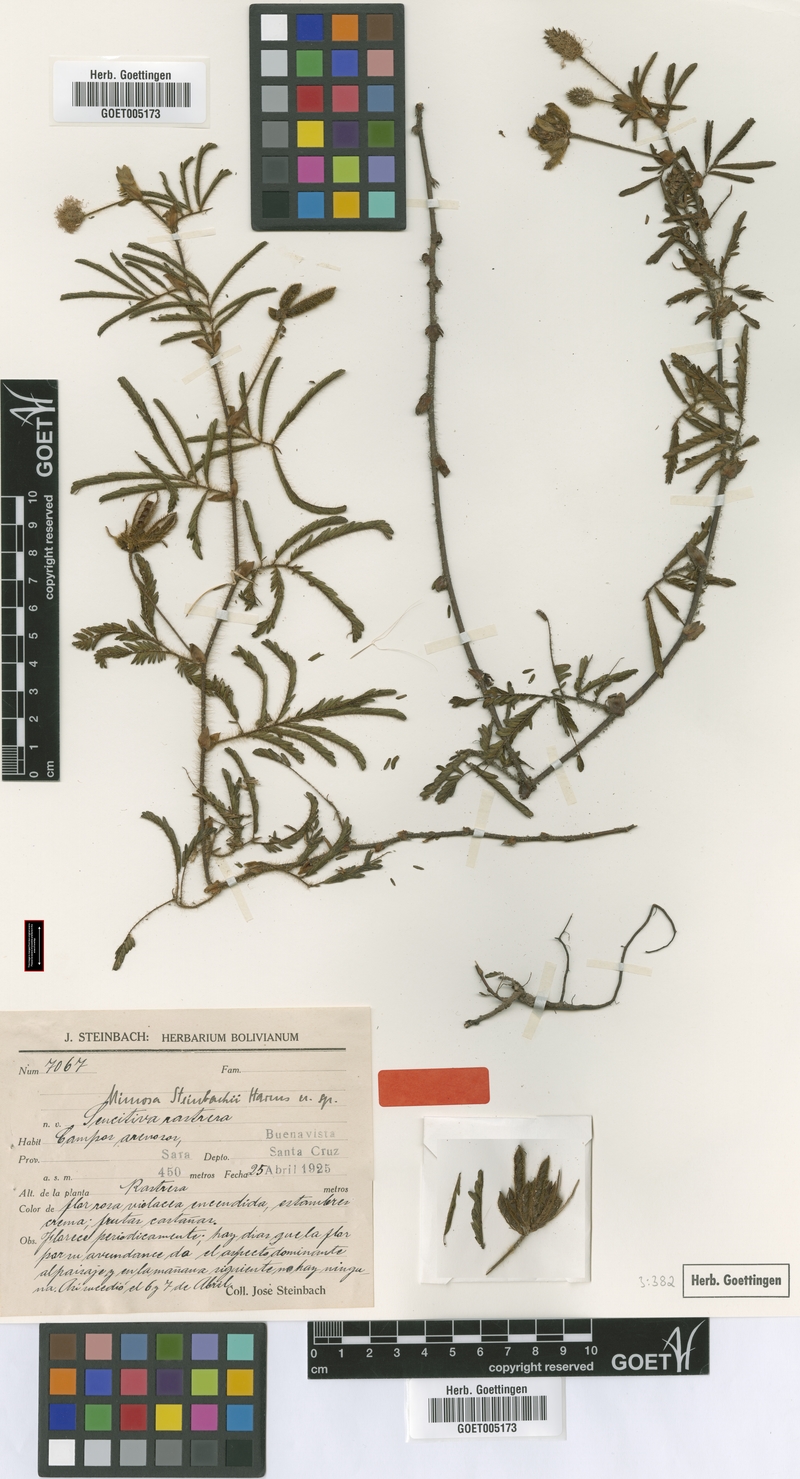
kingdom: Plantae
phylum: Tracheophyta
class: Magnoliopsida
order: Fabales
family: Fabaceae
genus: Mimosa
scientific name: Mimosa neptunioides
